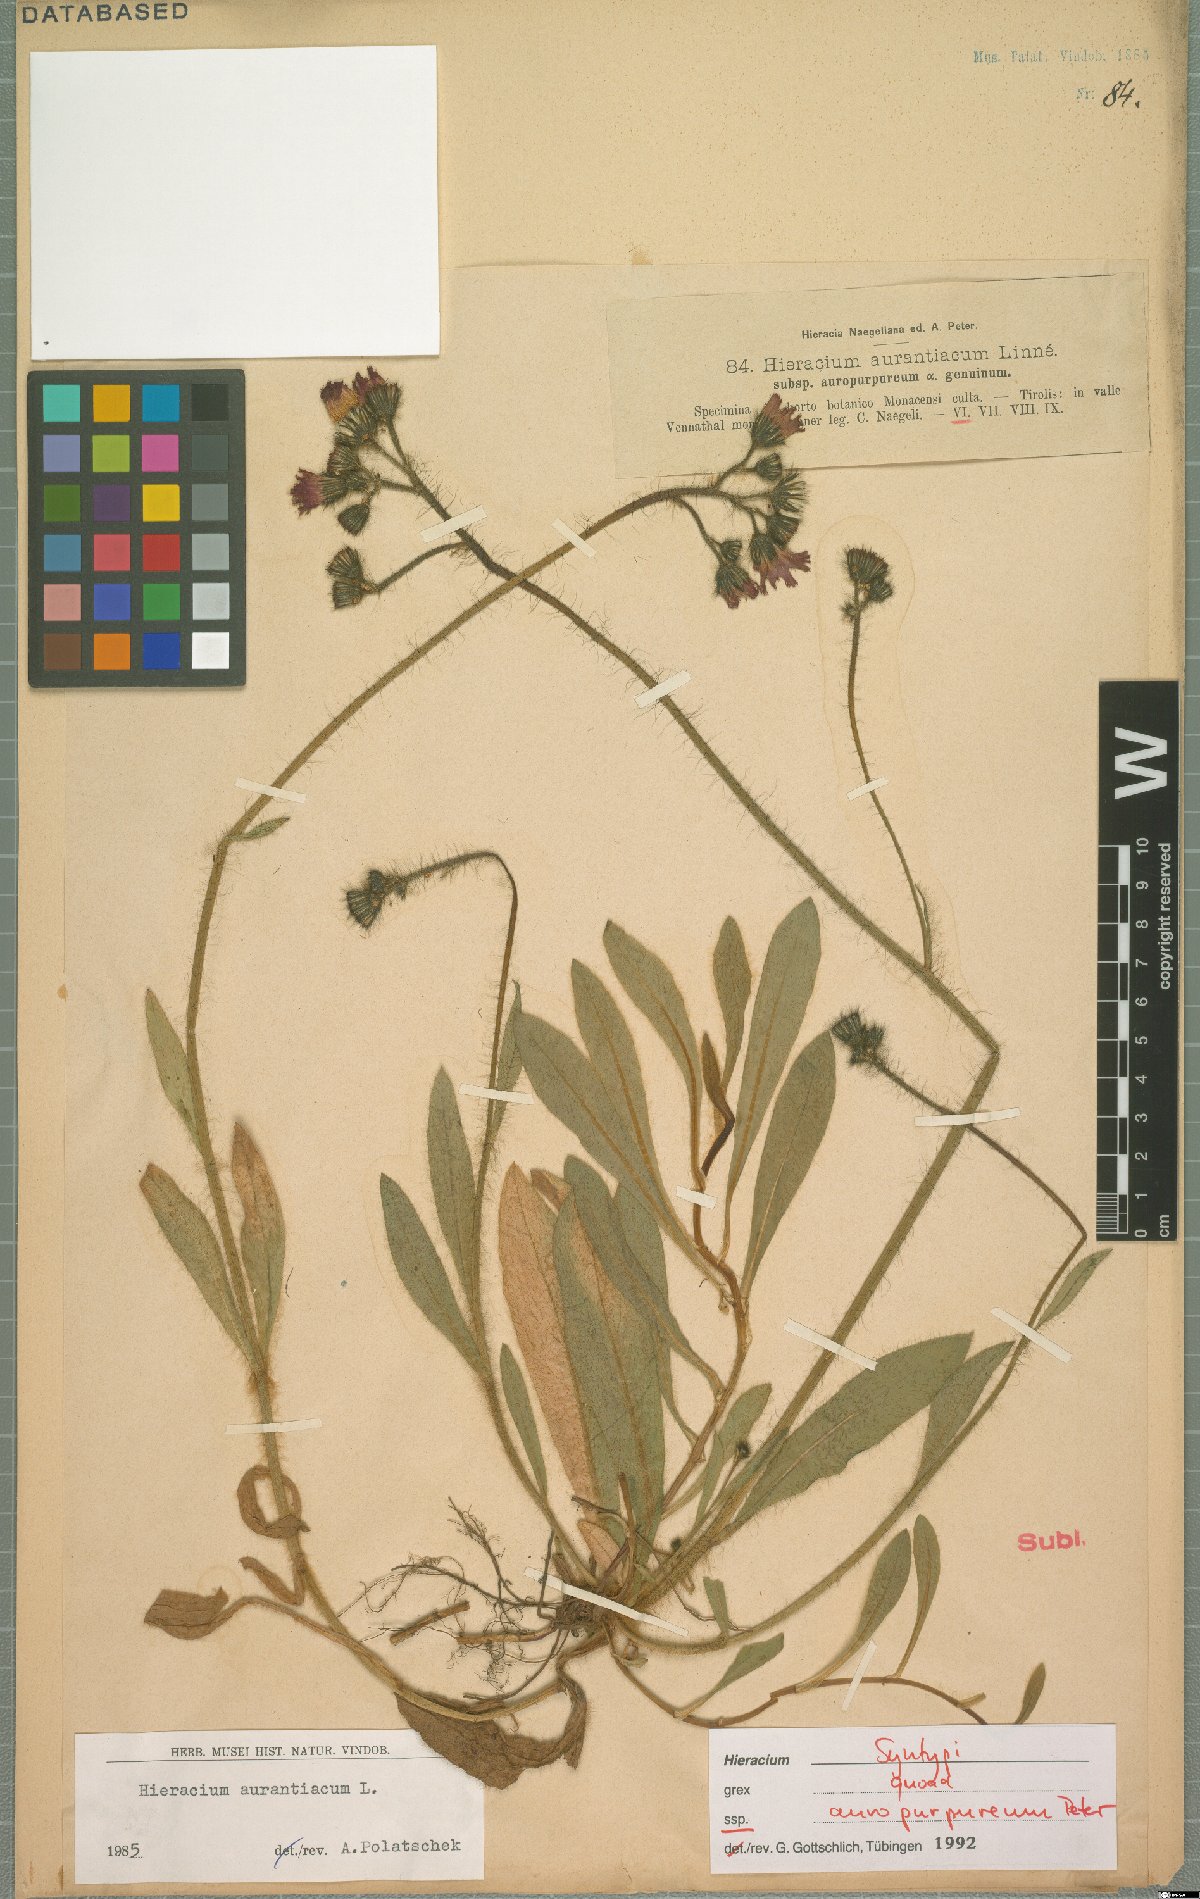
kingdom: Plantae
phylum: Tracheophyta
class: Magnoliopsida
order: Asterales
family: Asteraceae
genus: Pilosella
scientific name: Pilosella aurantiaca
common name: Fox-and-cubs
